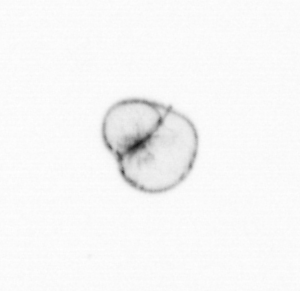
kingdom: Chromista
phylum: Myzozoa
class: Dinophyceae
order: Noctilucales
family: Noctilucaceae
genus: Noctiluca
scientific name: Noctiluca scintillans
